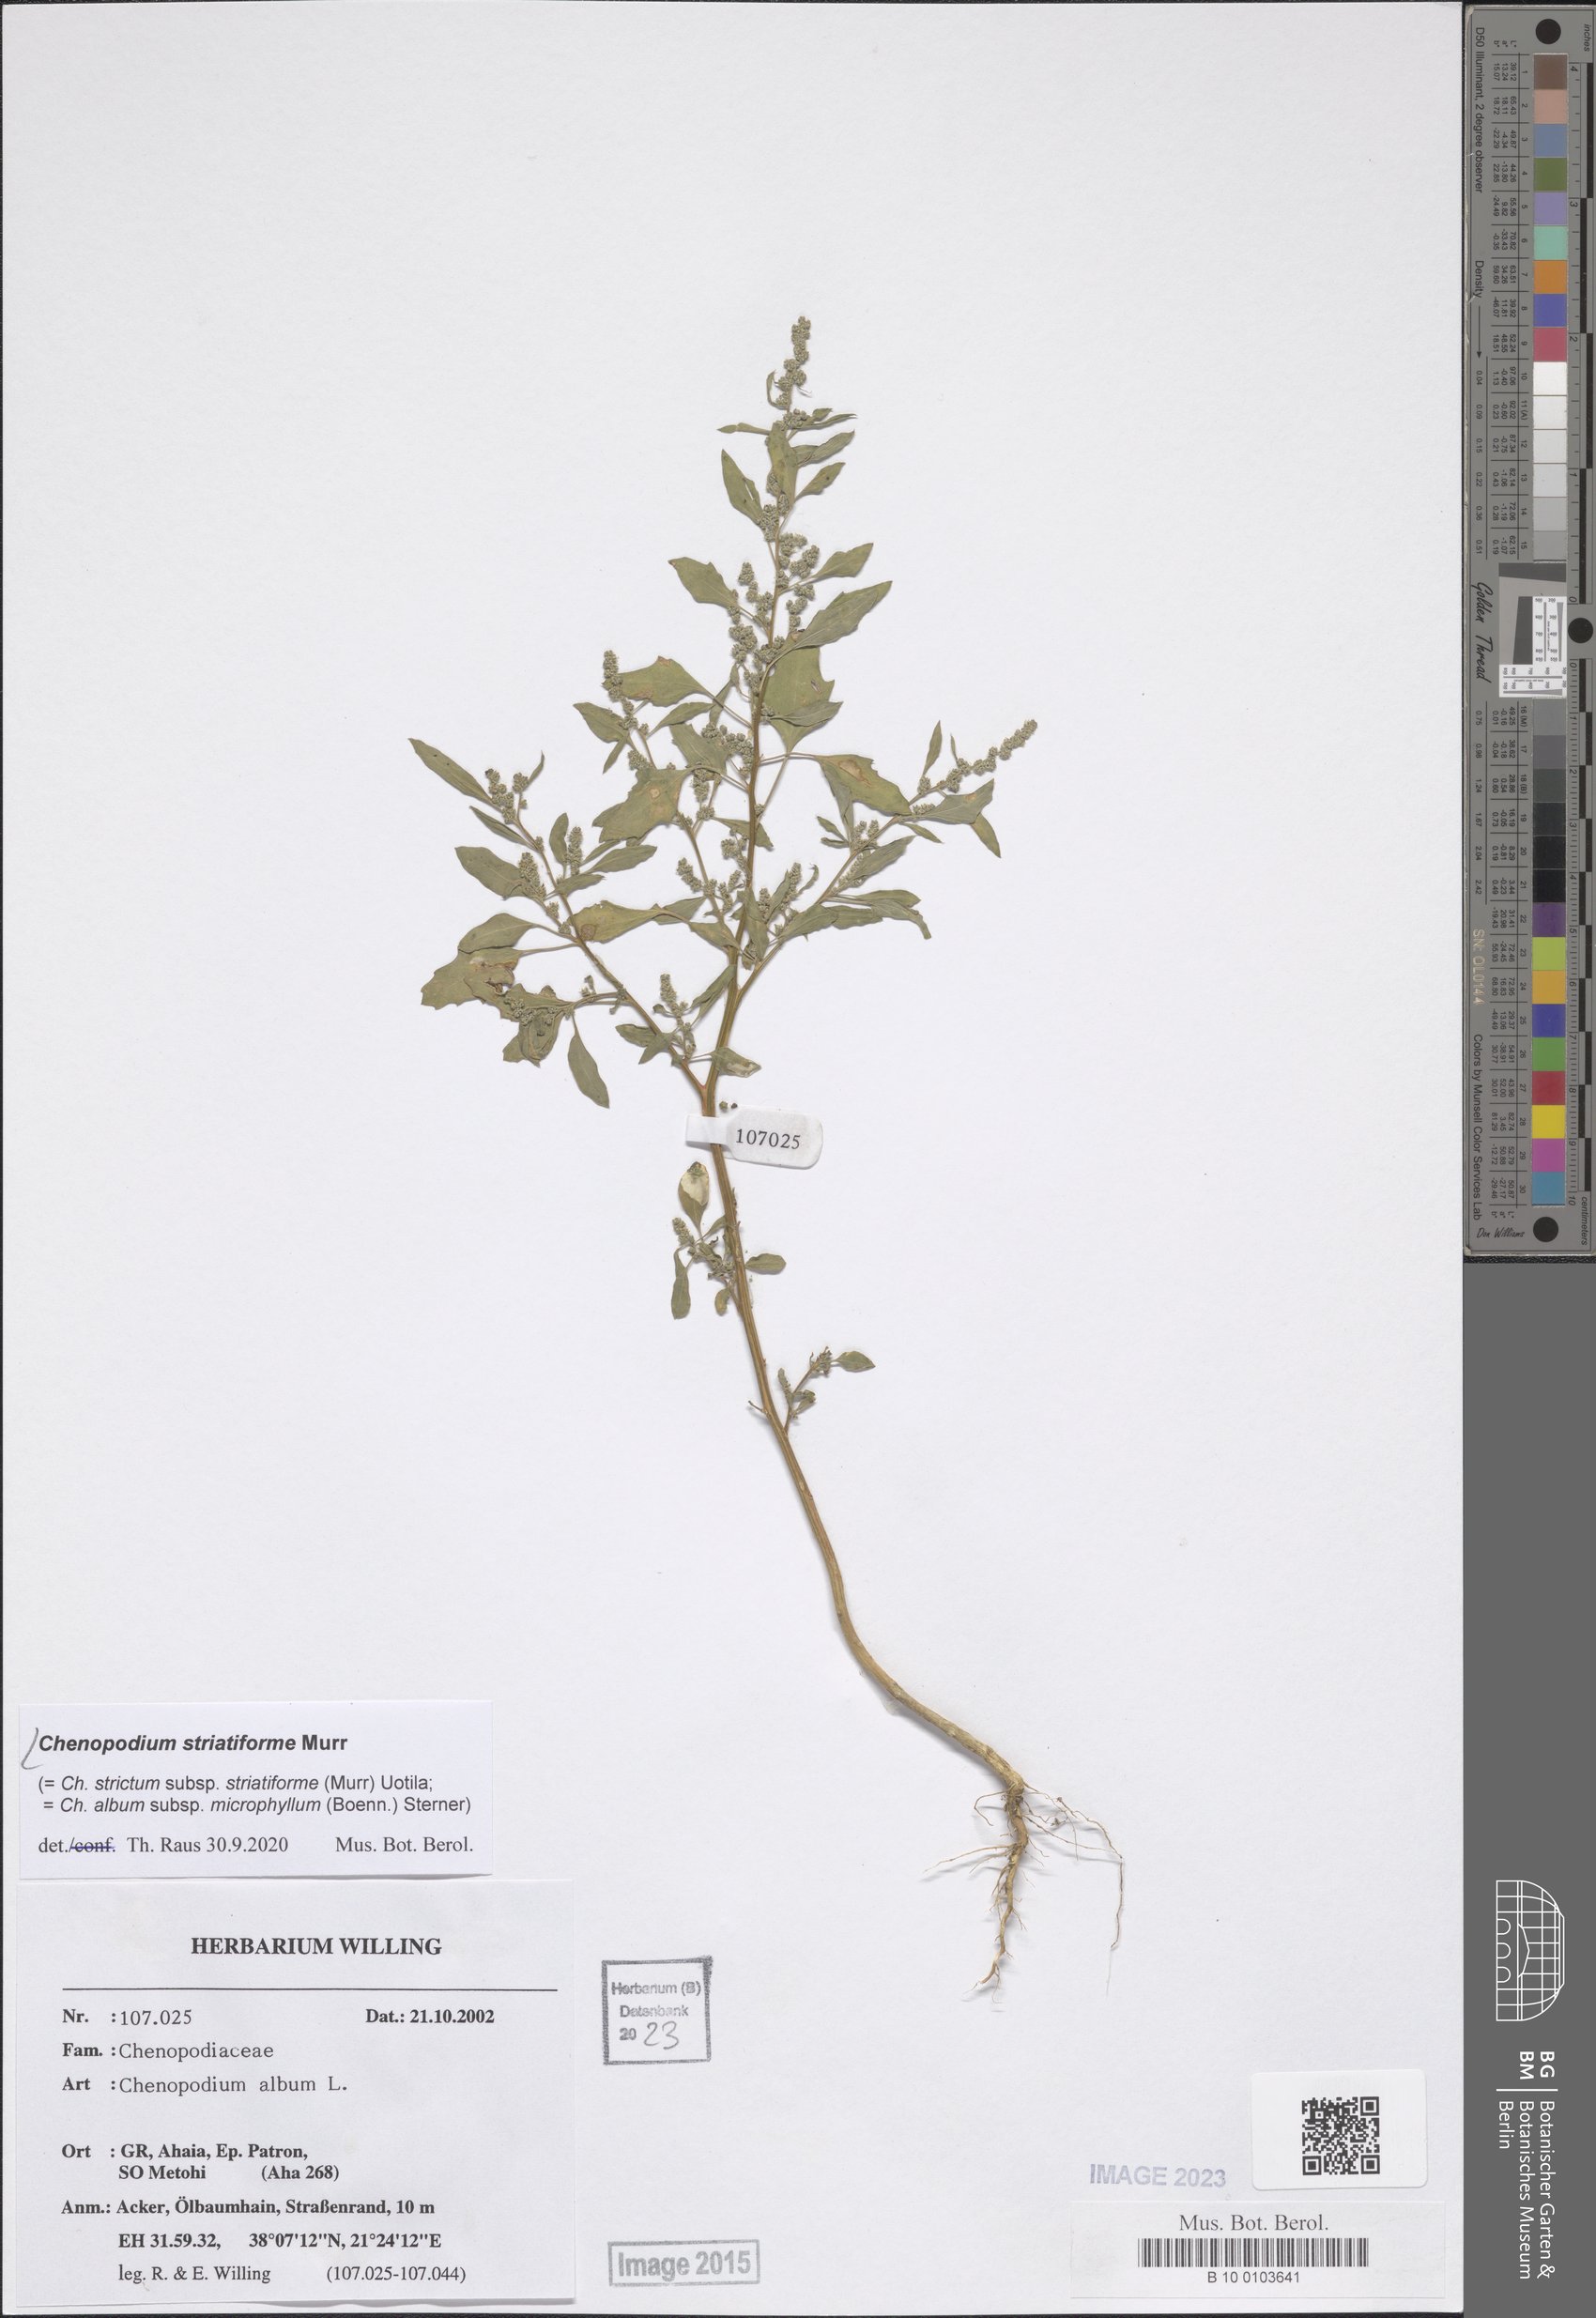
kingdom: Plantae
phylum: Tracheophyta
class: Magnoliopsida
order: Caryophyllales
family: Amaranthaceae
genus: Chenopodium
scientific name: Chenopodium striatiforme
